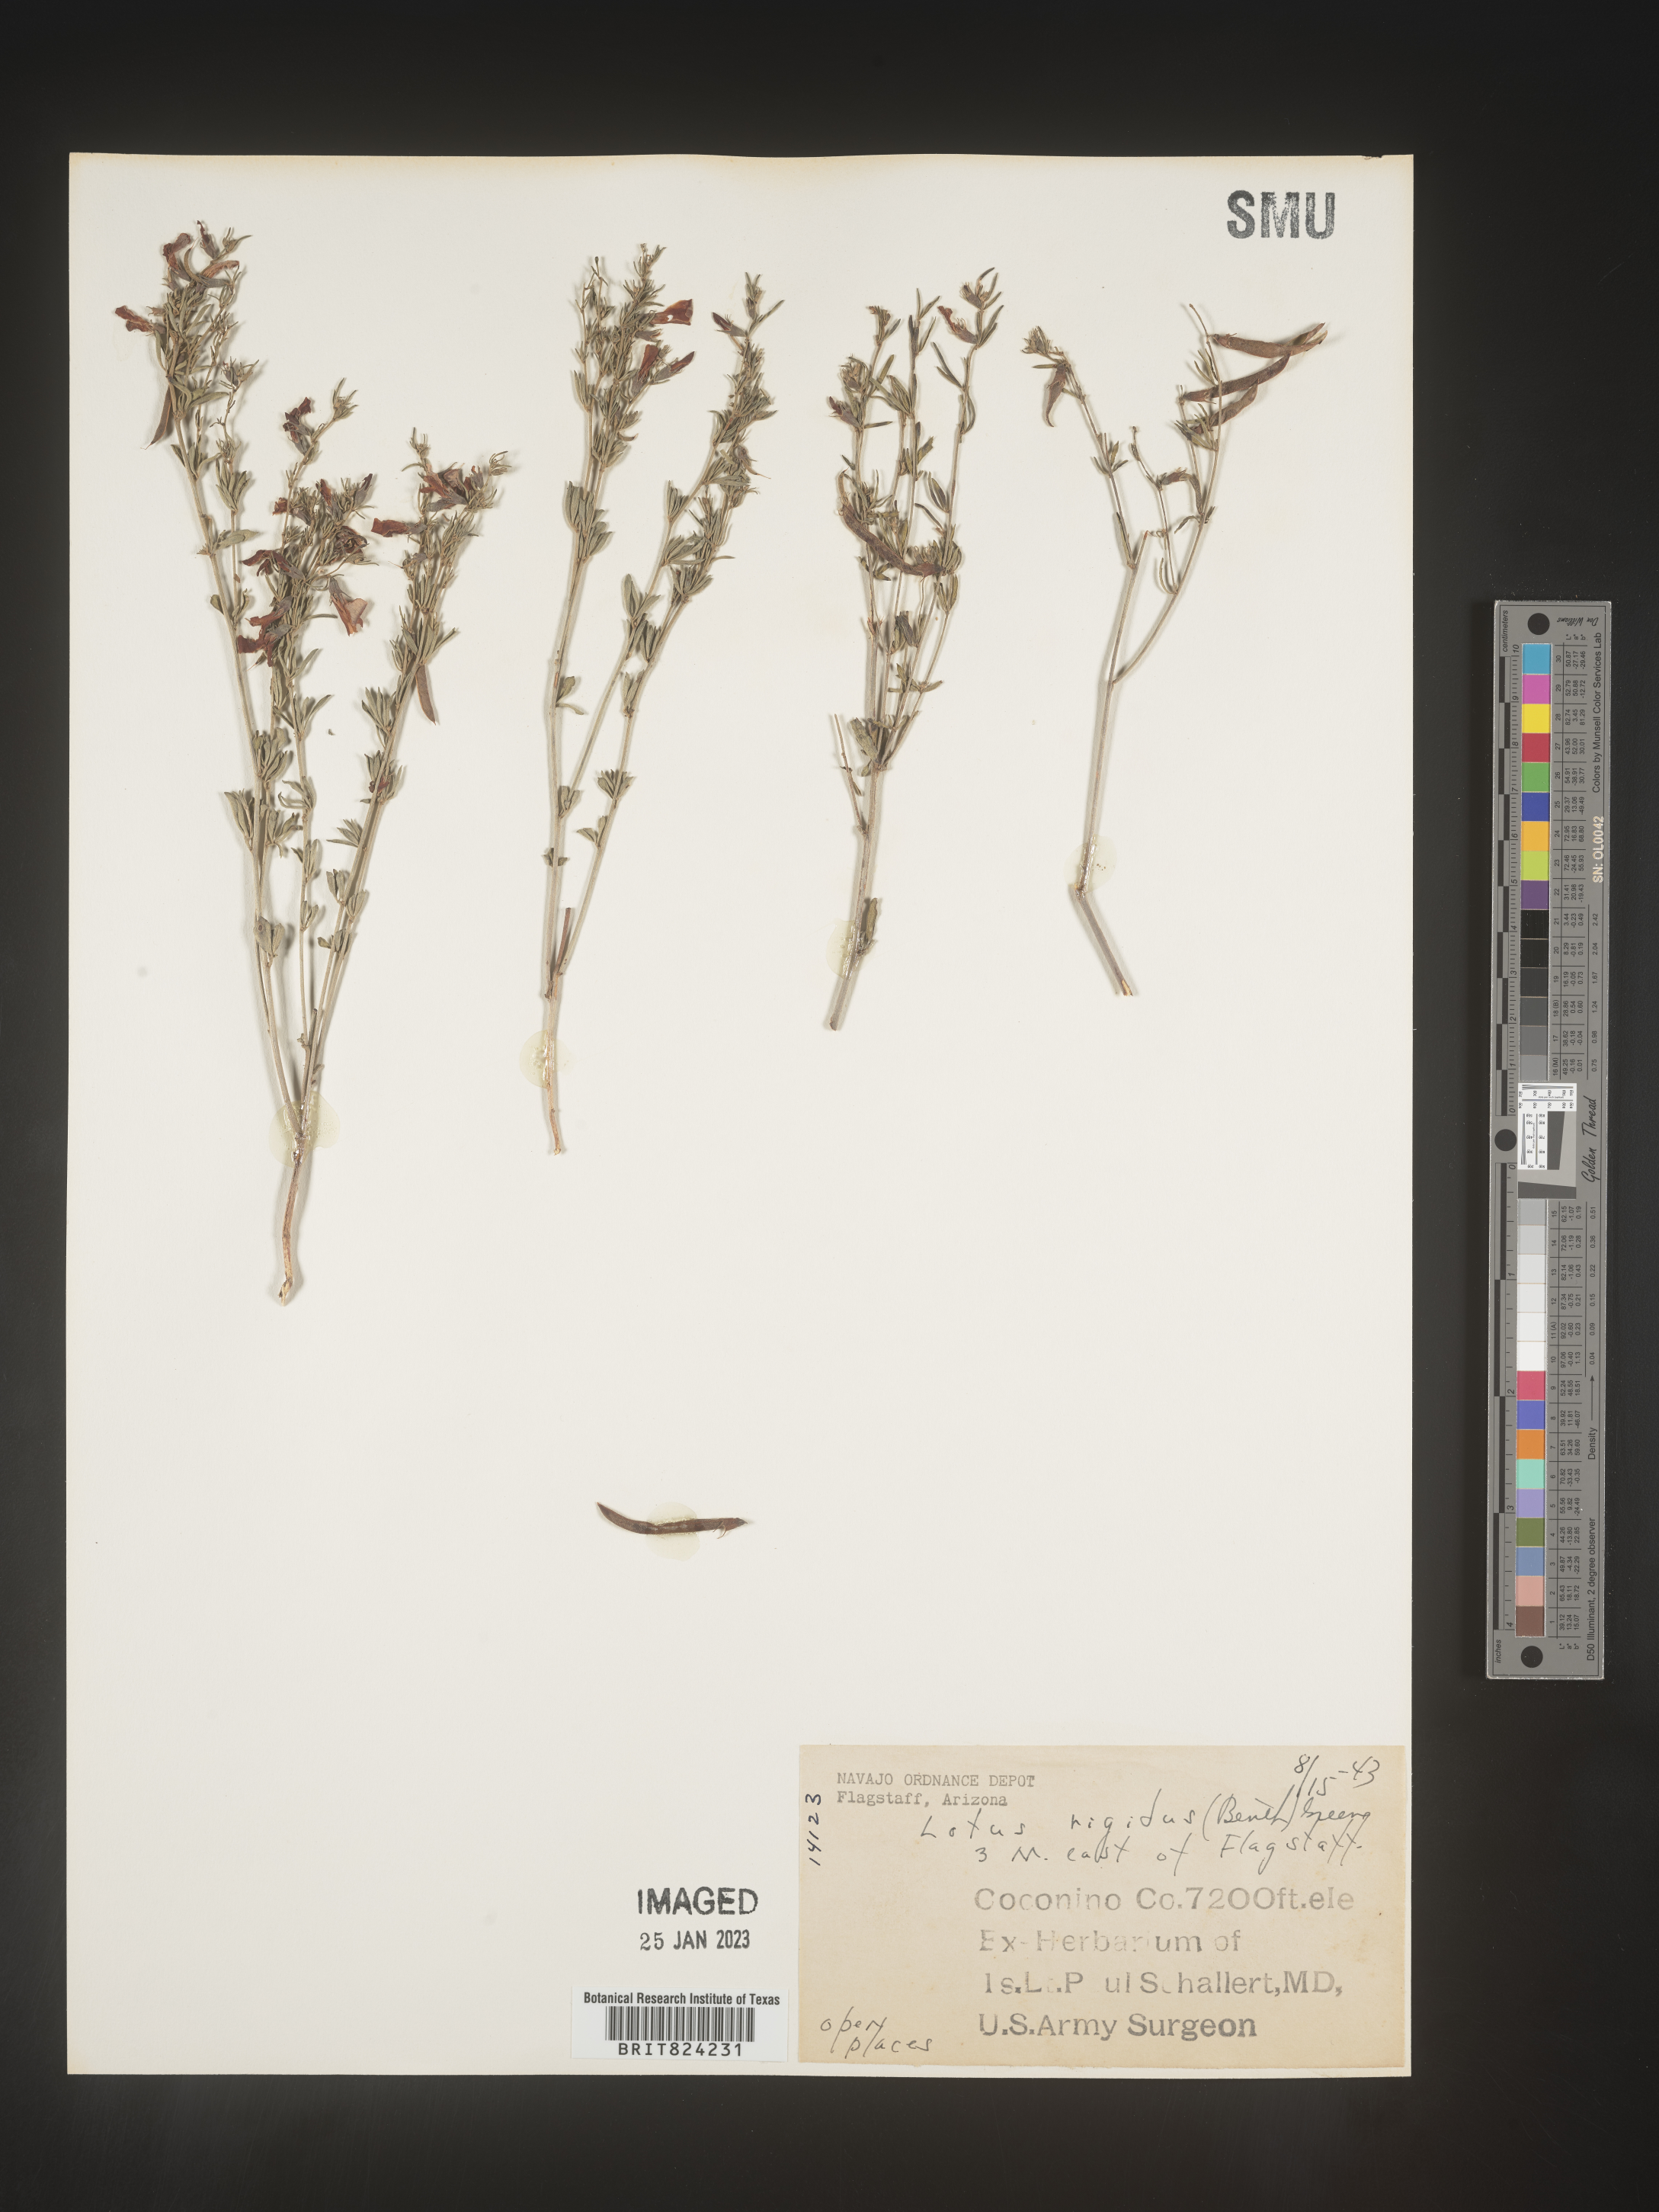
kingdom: Plantae
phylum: Tracheophyta
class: Magnoliopsida
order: Fabales
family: Fabaceae
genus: Lotus
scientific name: Lotus
